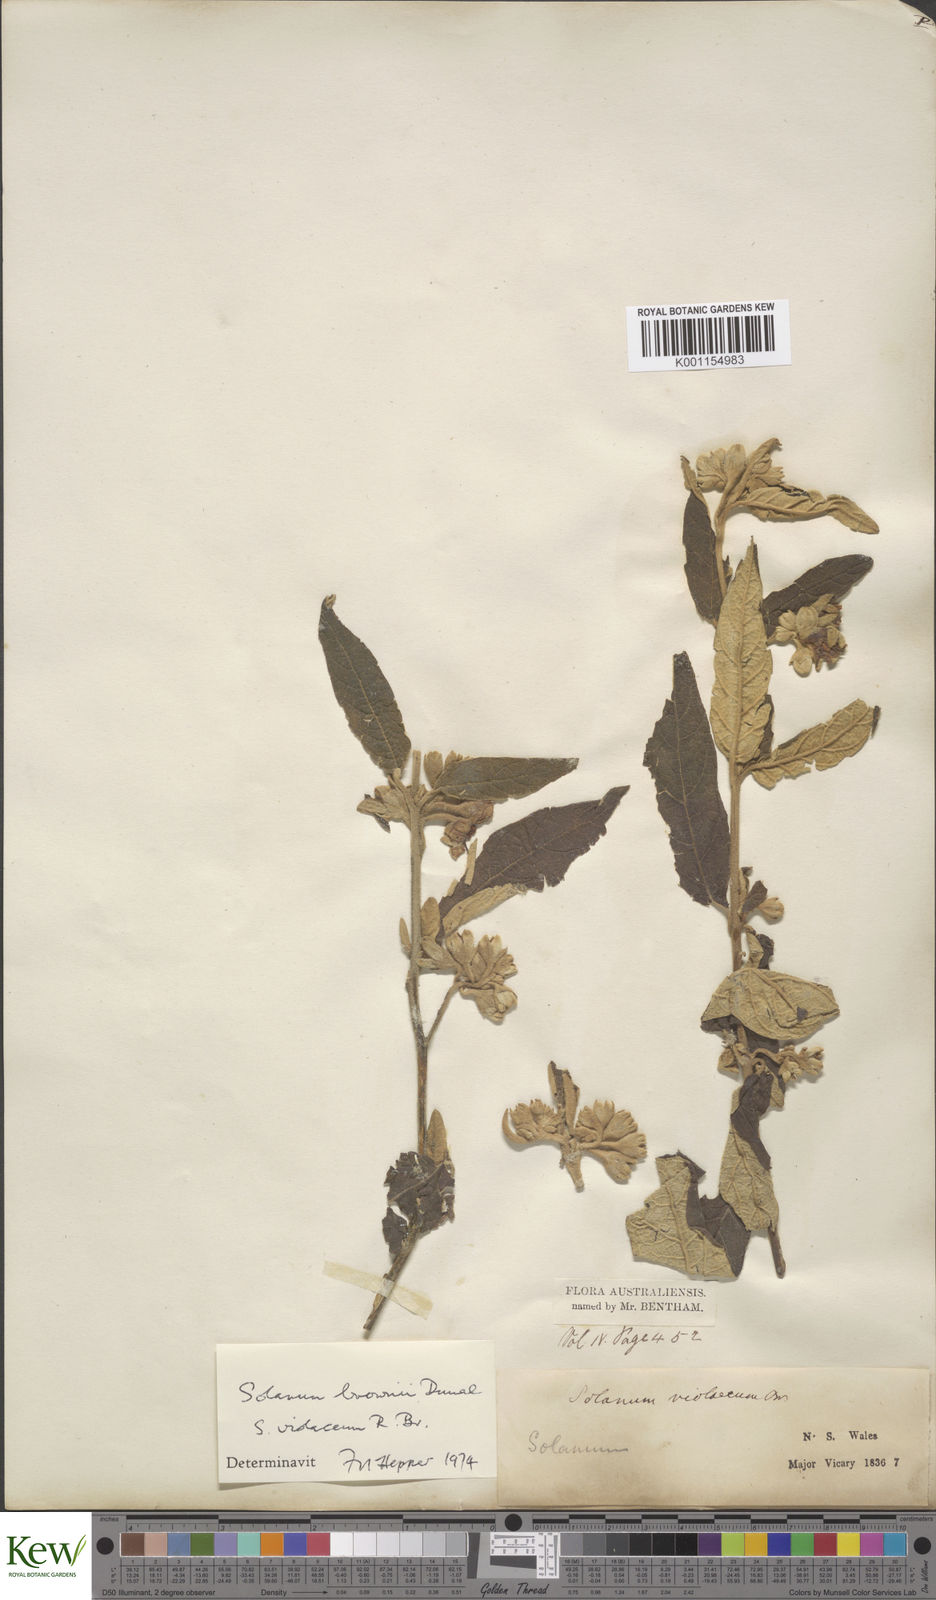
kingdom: Plantae
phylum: Tracheophyta
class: Magnoliopsida
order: Solanales
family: Solanaceae
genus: Solanum
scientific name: Solanum brownii
